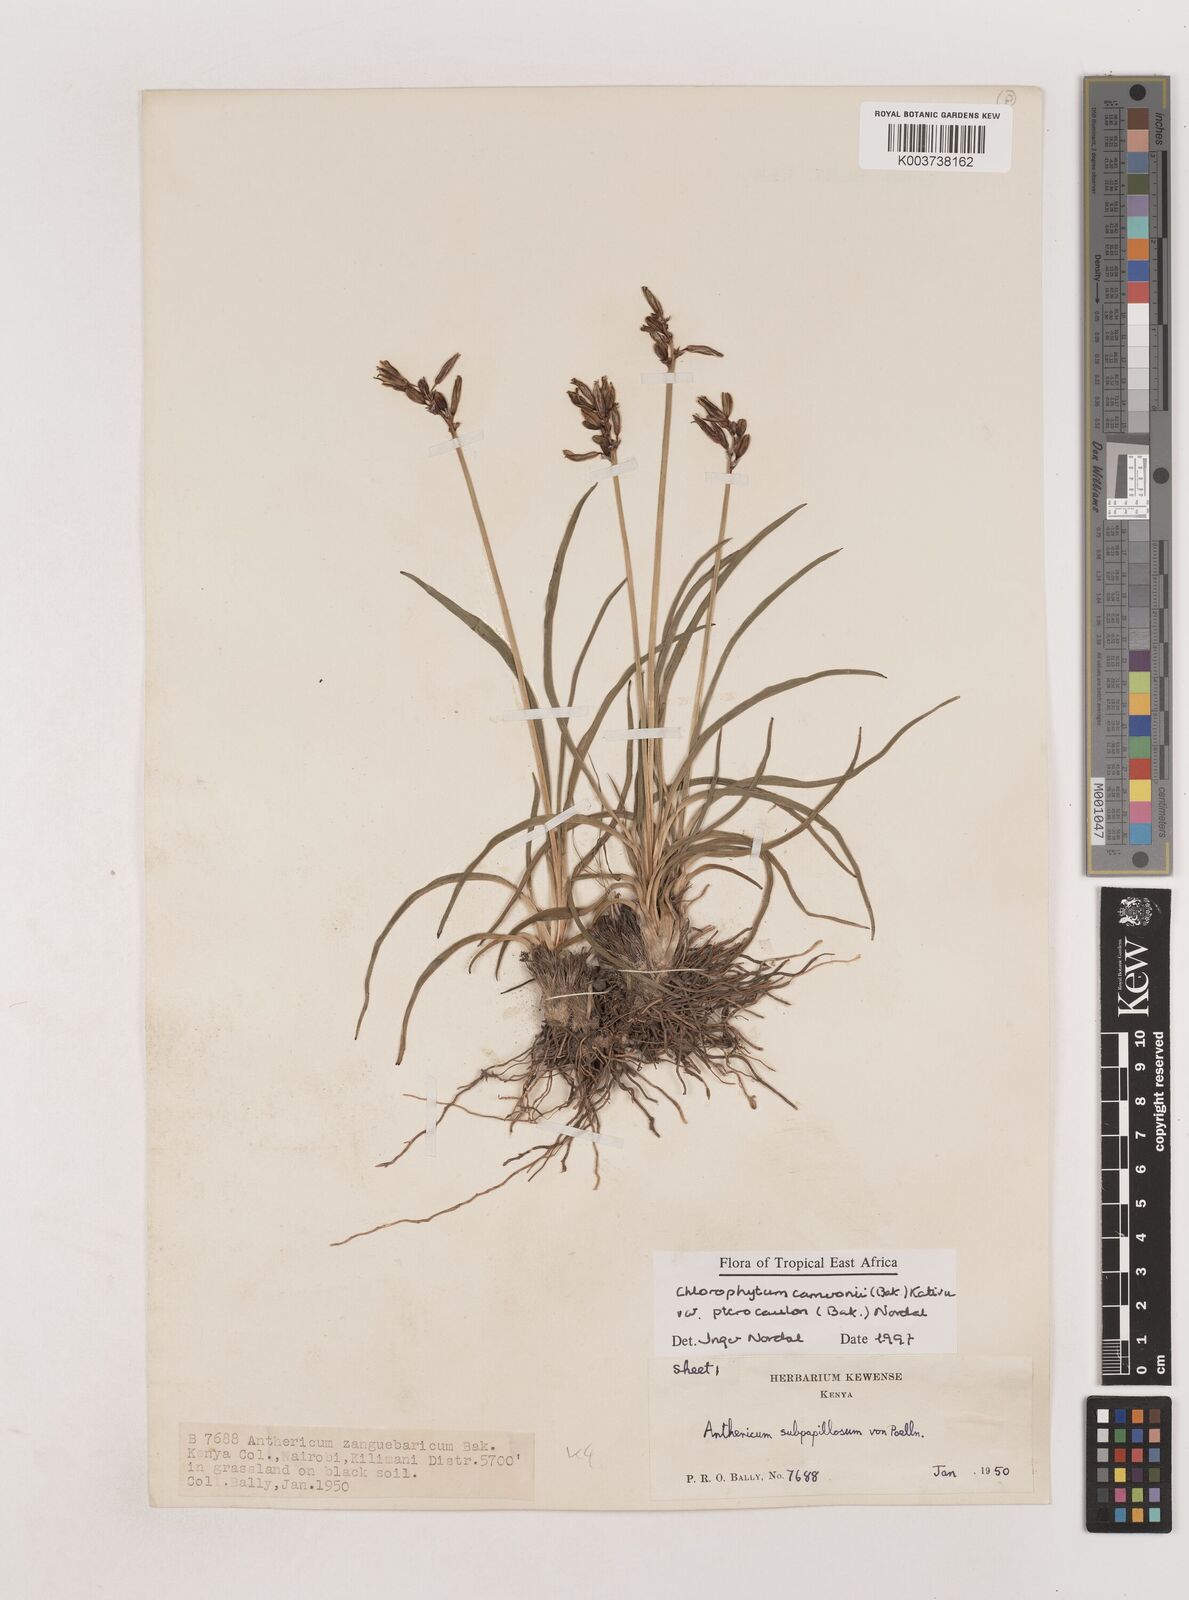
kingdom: Plantae
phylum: Tracheophyta
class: Liliopsida
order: Asparagales
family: Asparagaceae
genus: Chlorophytum
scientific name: Chlorophytum cameronii
